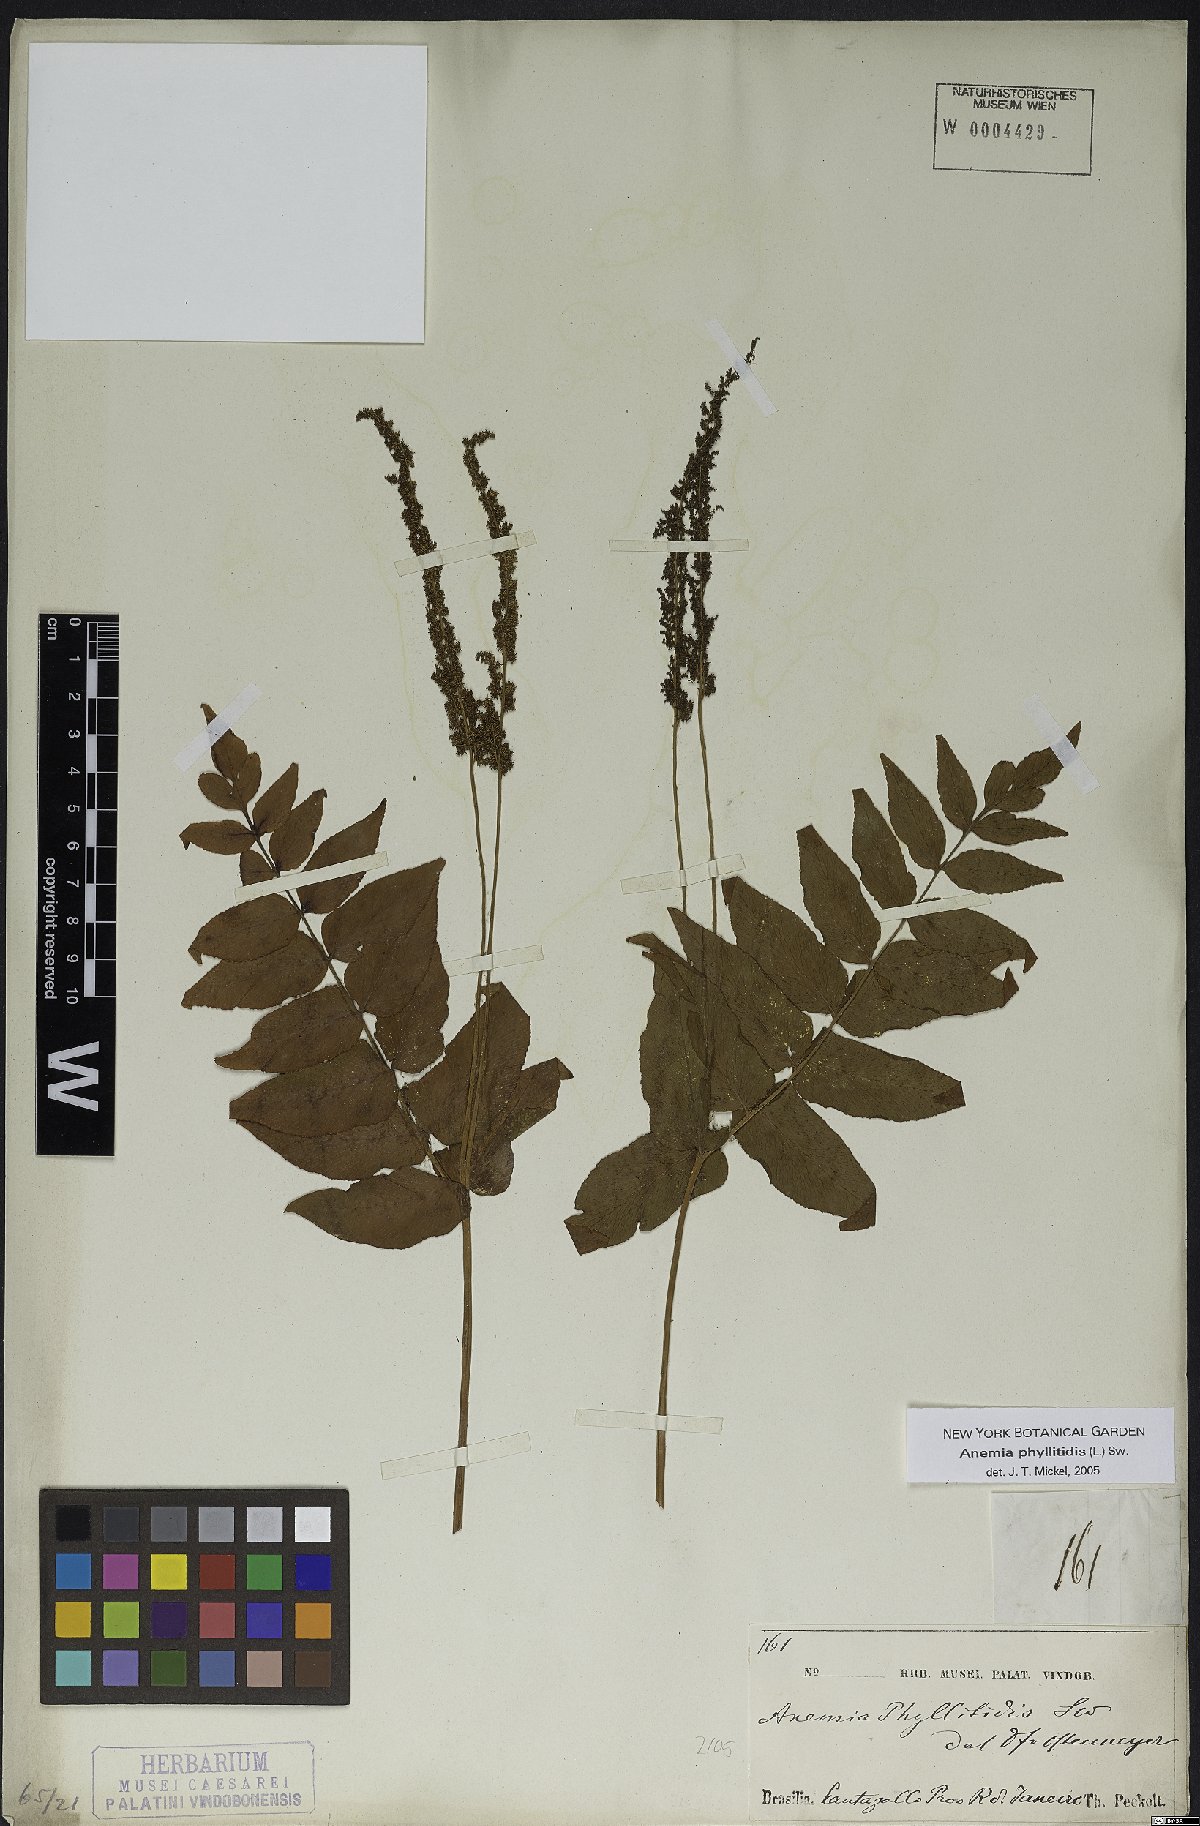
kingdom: Plantae
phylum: Tracheophyta
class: Polypodiopsida
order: Schizaeales
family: Anemiaceae
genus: Anemia
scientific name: Anemia phyllitidis
